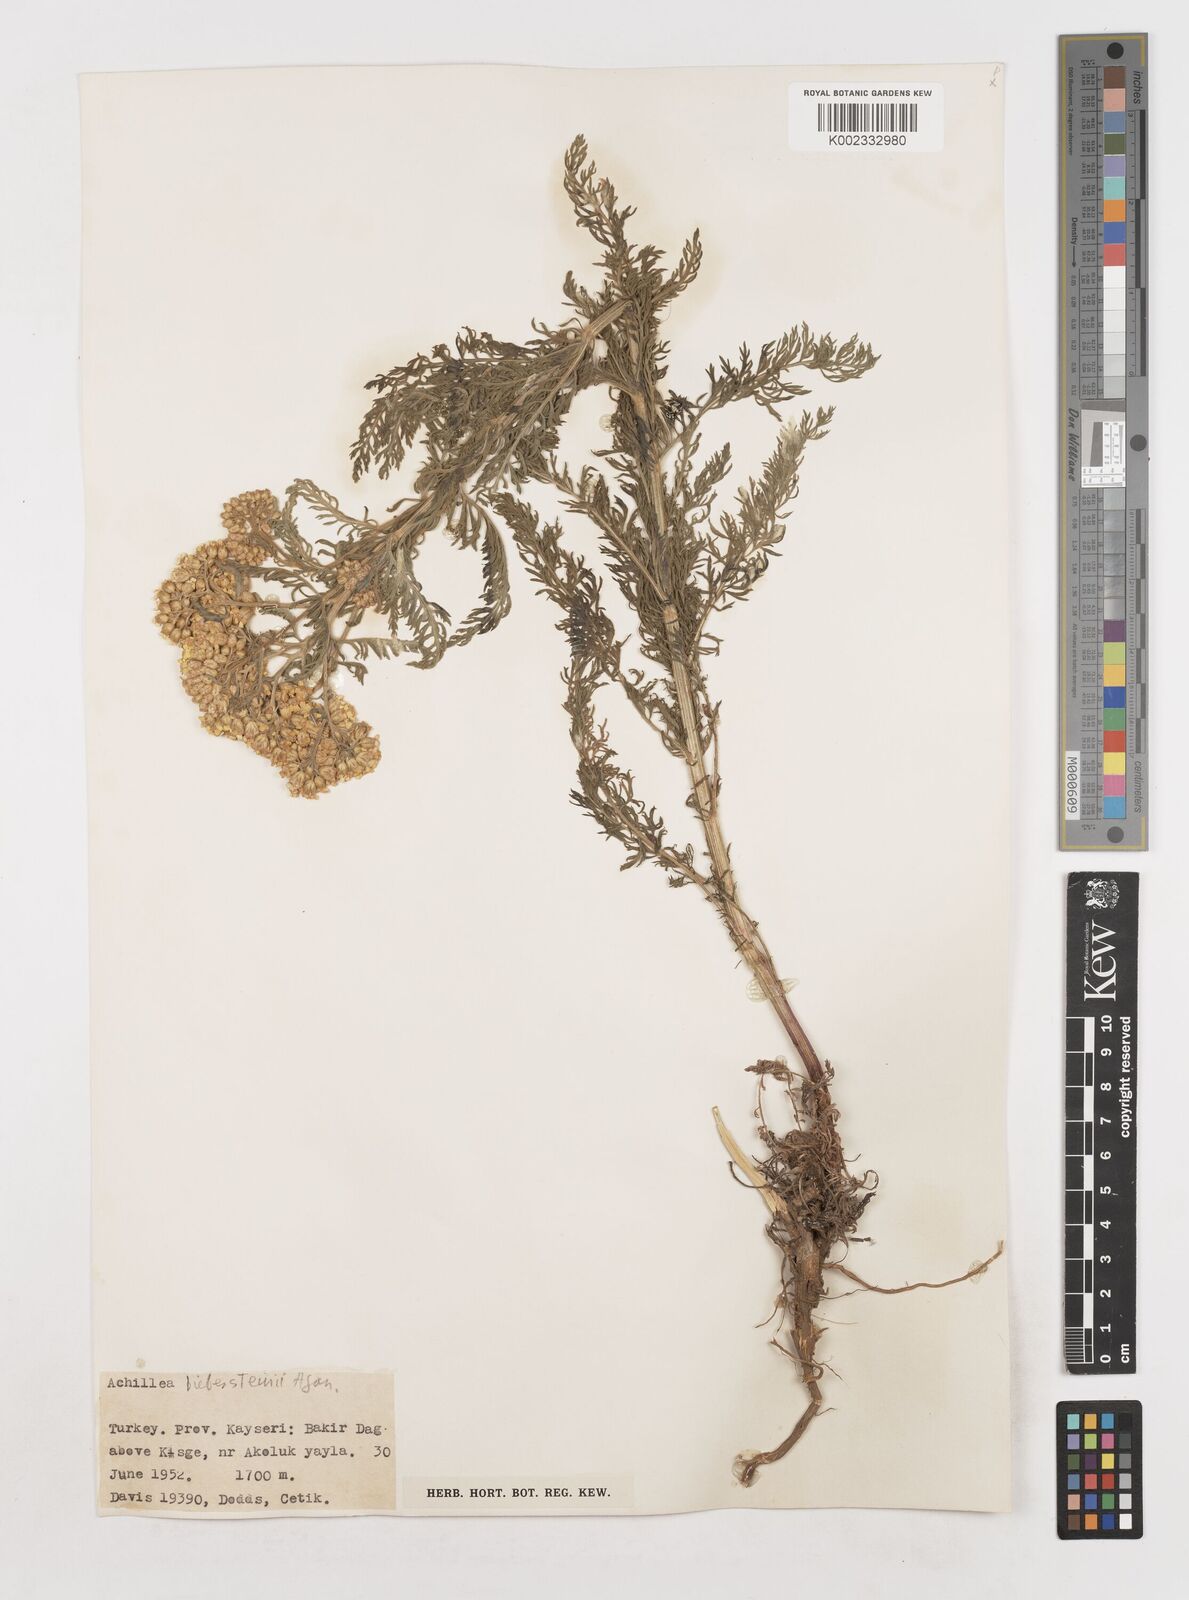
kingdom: Plantae
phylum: Tracheophyta
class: Magnoliopsida
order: Asterales
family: Asteraceae
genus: Achillea
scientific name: Achillea arabica
